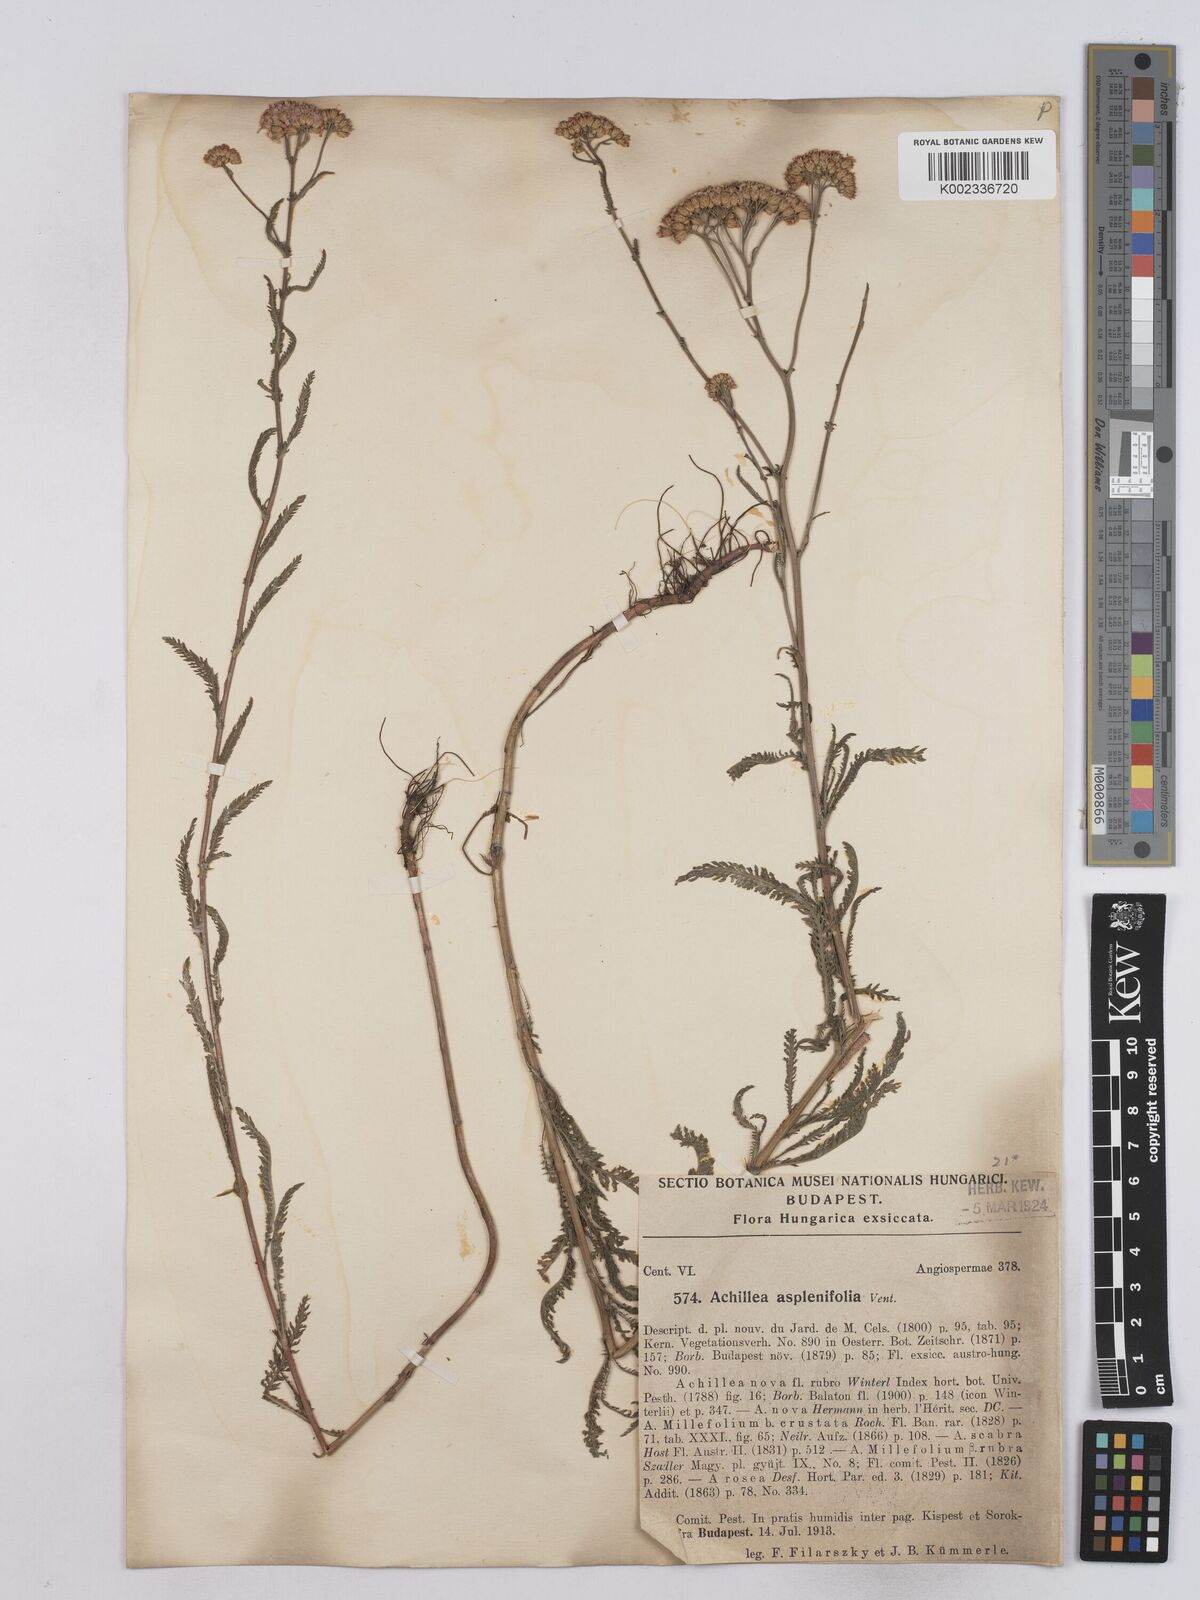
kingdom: Plantae
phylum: Tracheophyta
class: Magnoliopsida
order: Asterales
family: Asteraceae
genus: Achillea
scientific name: Achillea aspleniifolia
